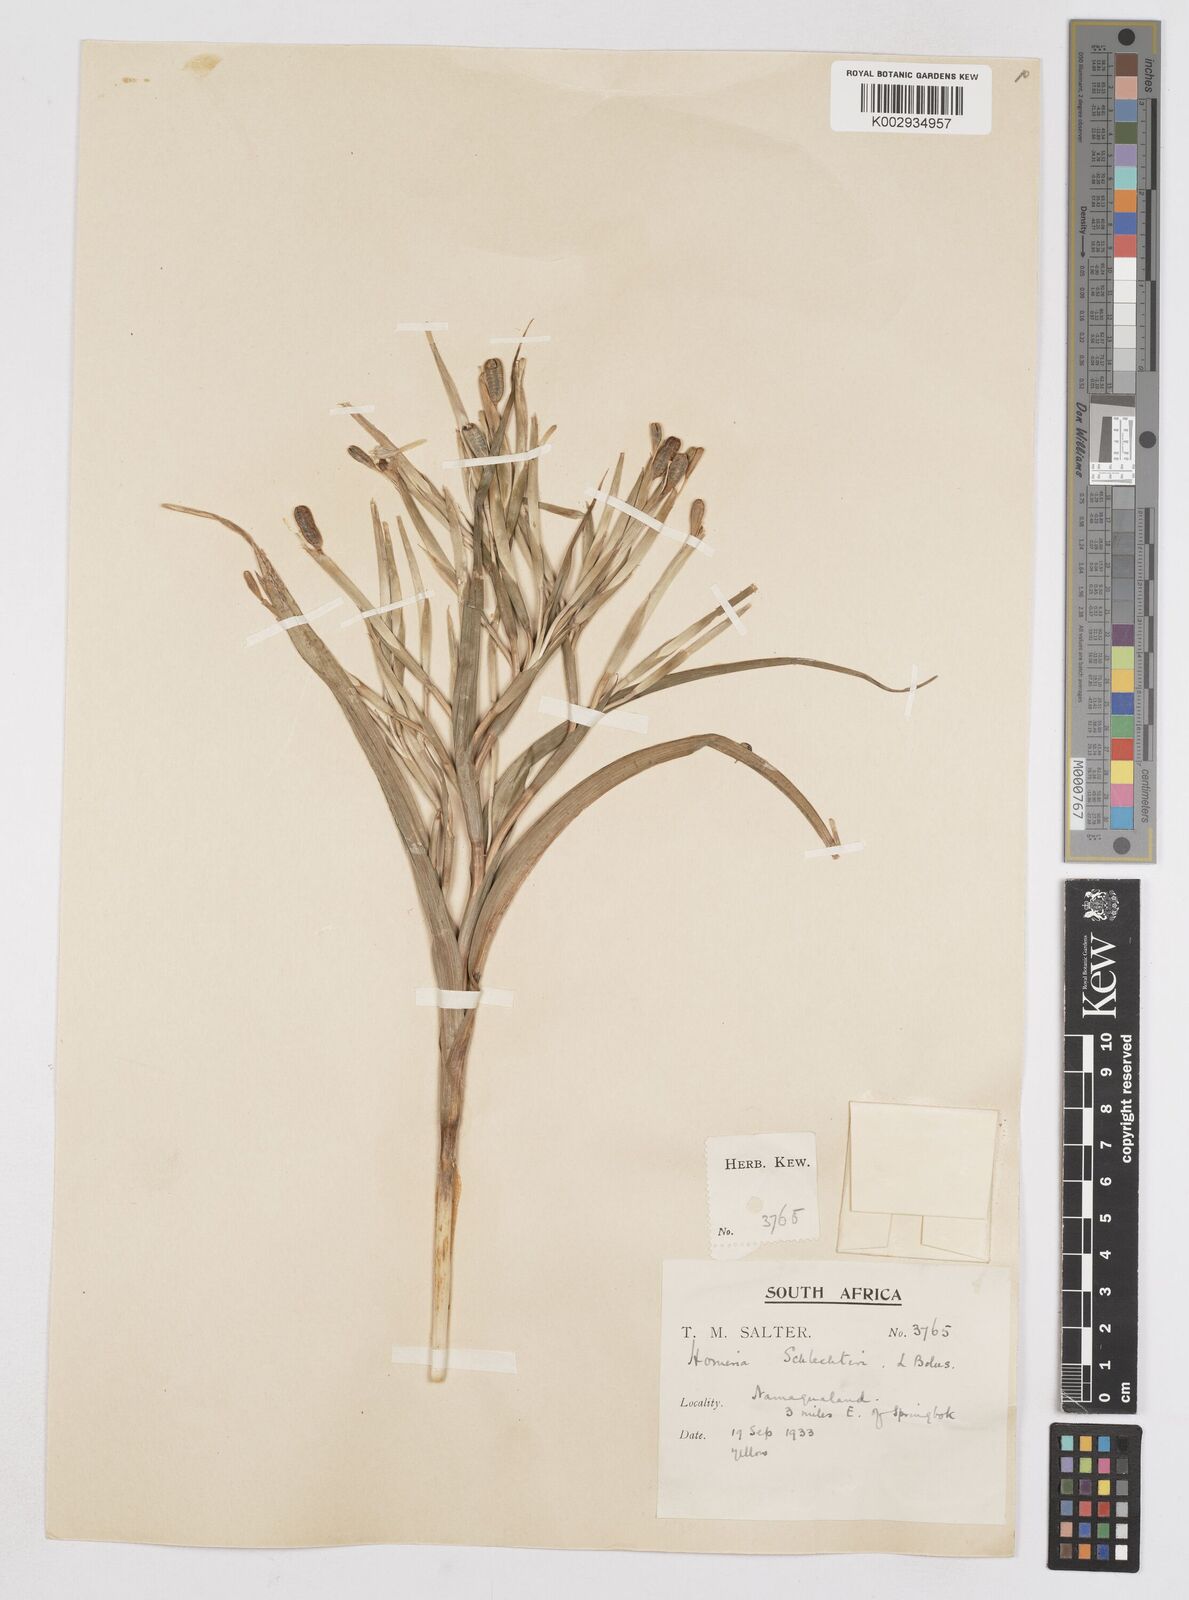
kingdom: Plantae
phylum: Tracheophyta
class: Liliopsida
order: Asparagales
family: Iridaceae
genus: Moraea
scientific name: Moraea schlechteri
